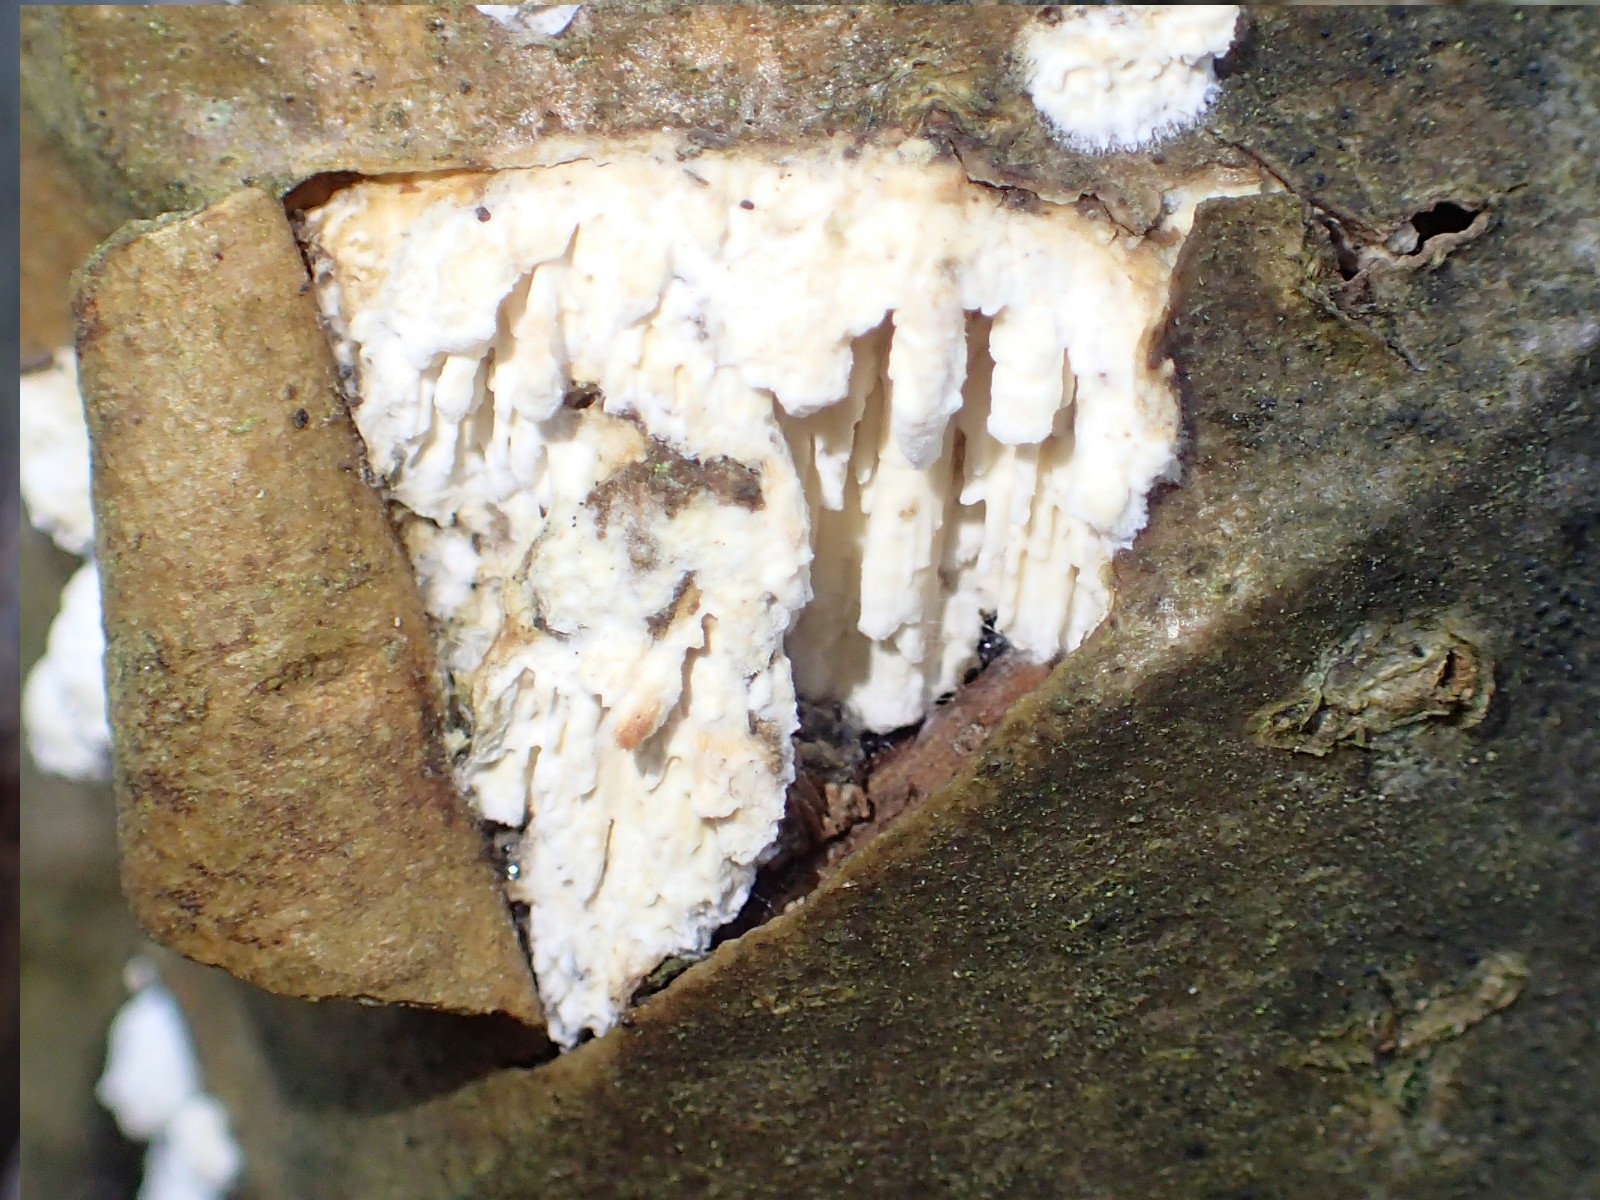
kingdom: Fungi
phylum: Basidiomycota
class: Agaricomycetes
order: Hymenochaetales
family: Schizoporaceae
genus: Xylodon
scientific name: Xylodon radula
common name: grovtandet kalkskind
